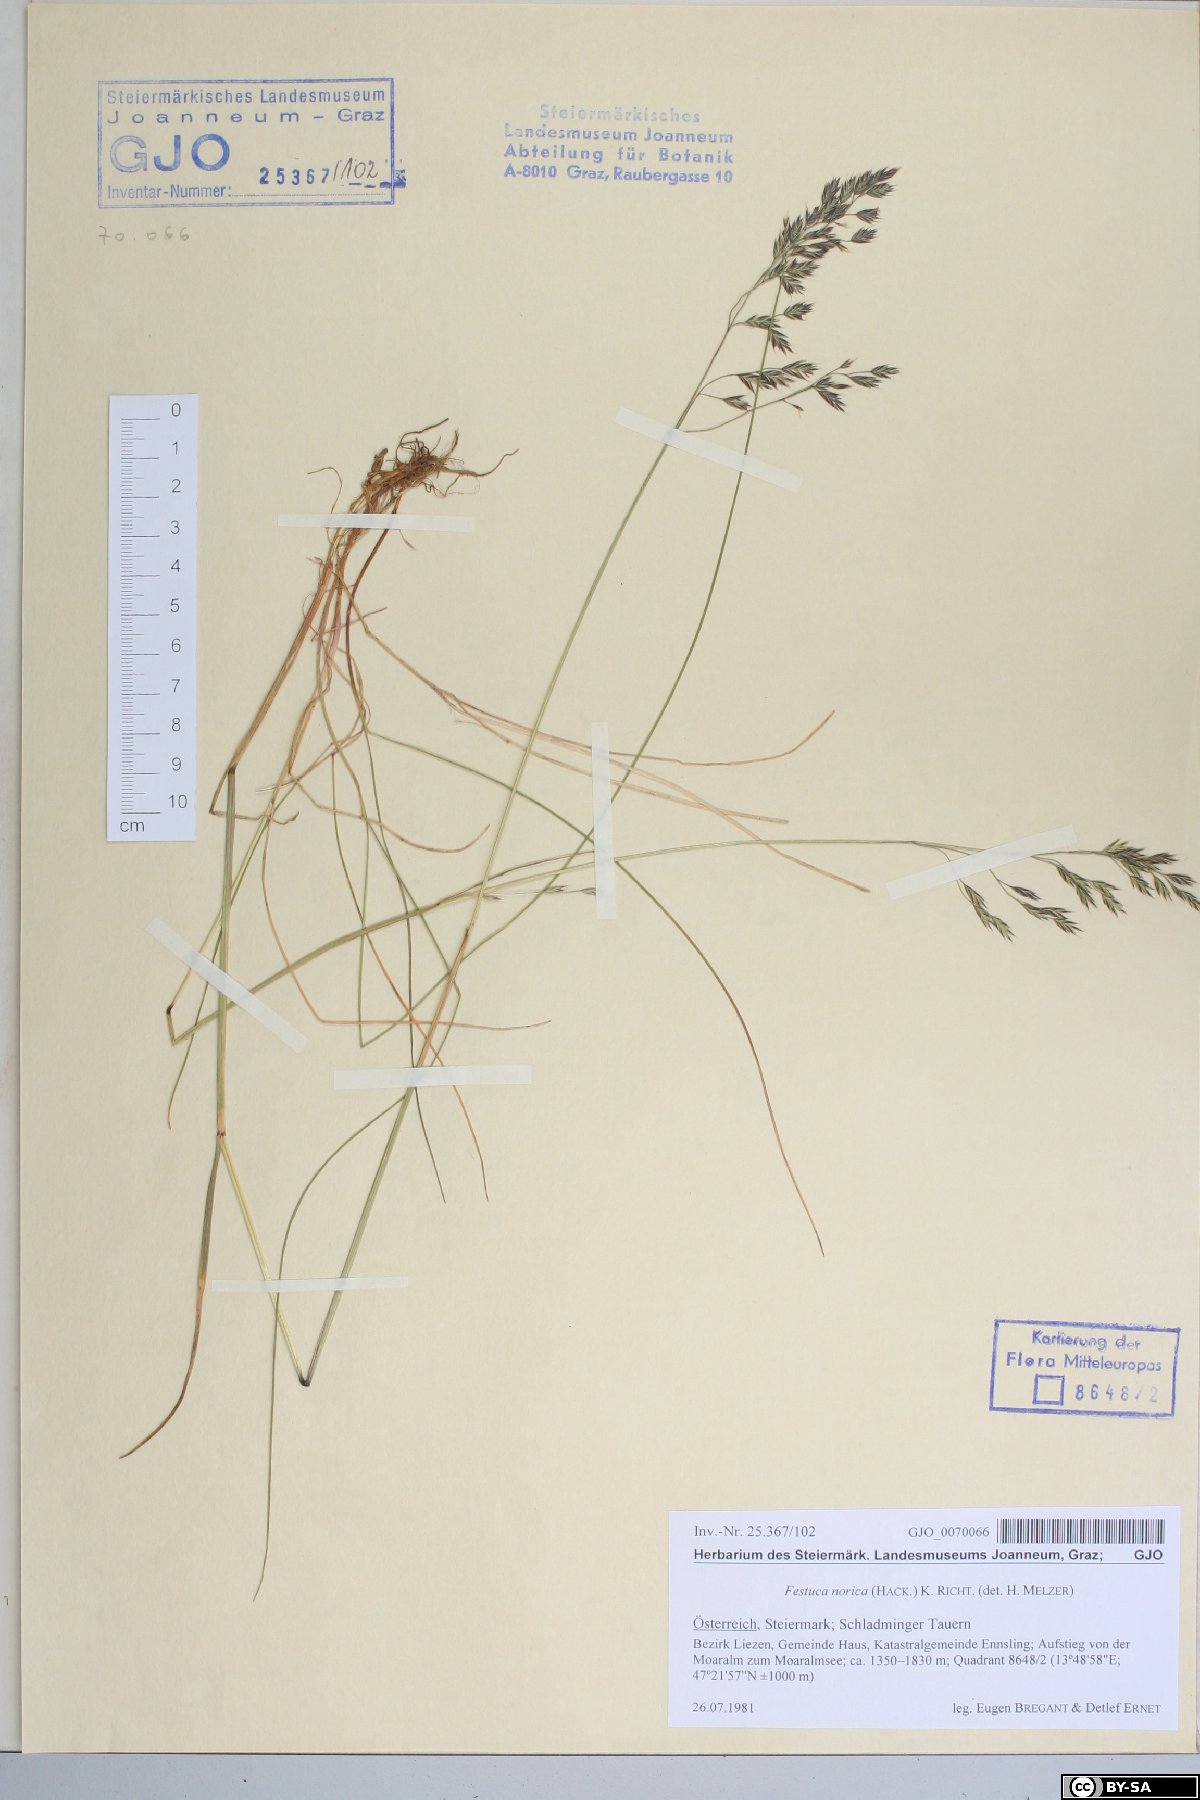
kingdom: Plantae
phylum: Tracheophyta
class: Liliopsida
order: Poales
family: Poaceae
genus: Festuca
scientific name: Festuca norica
